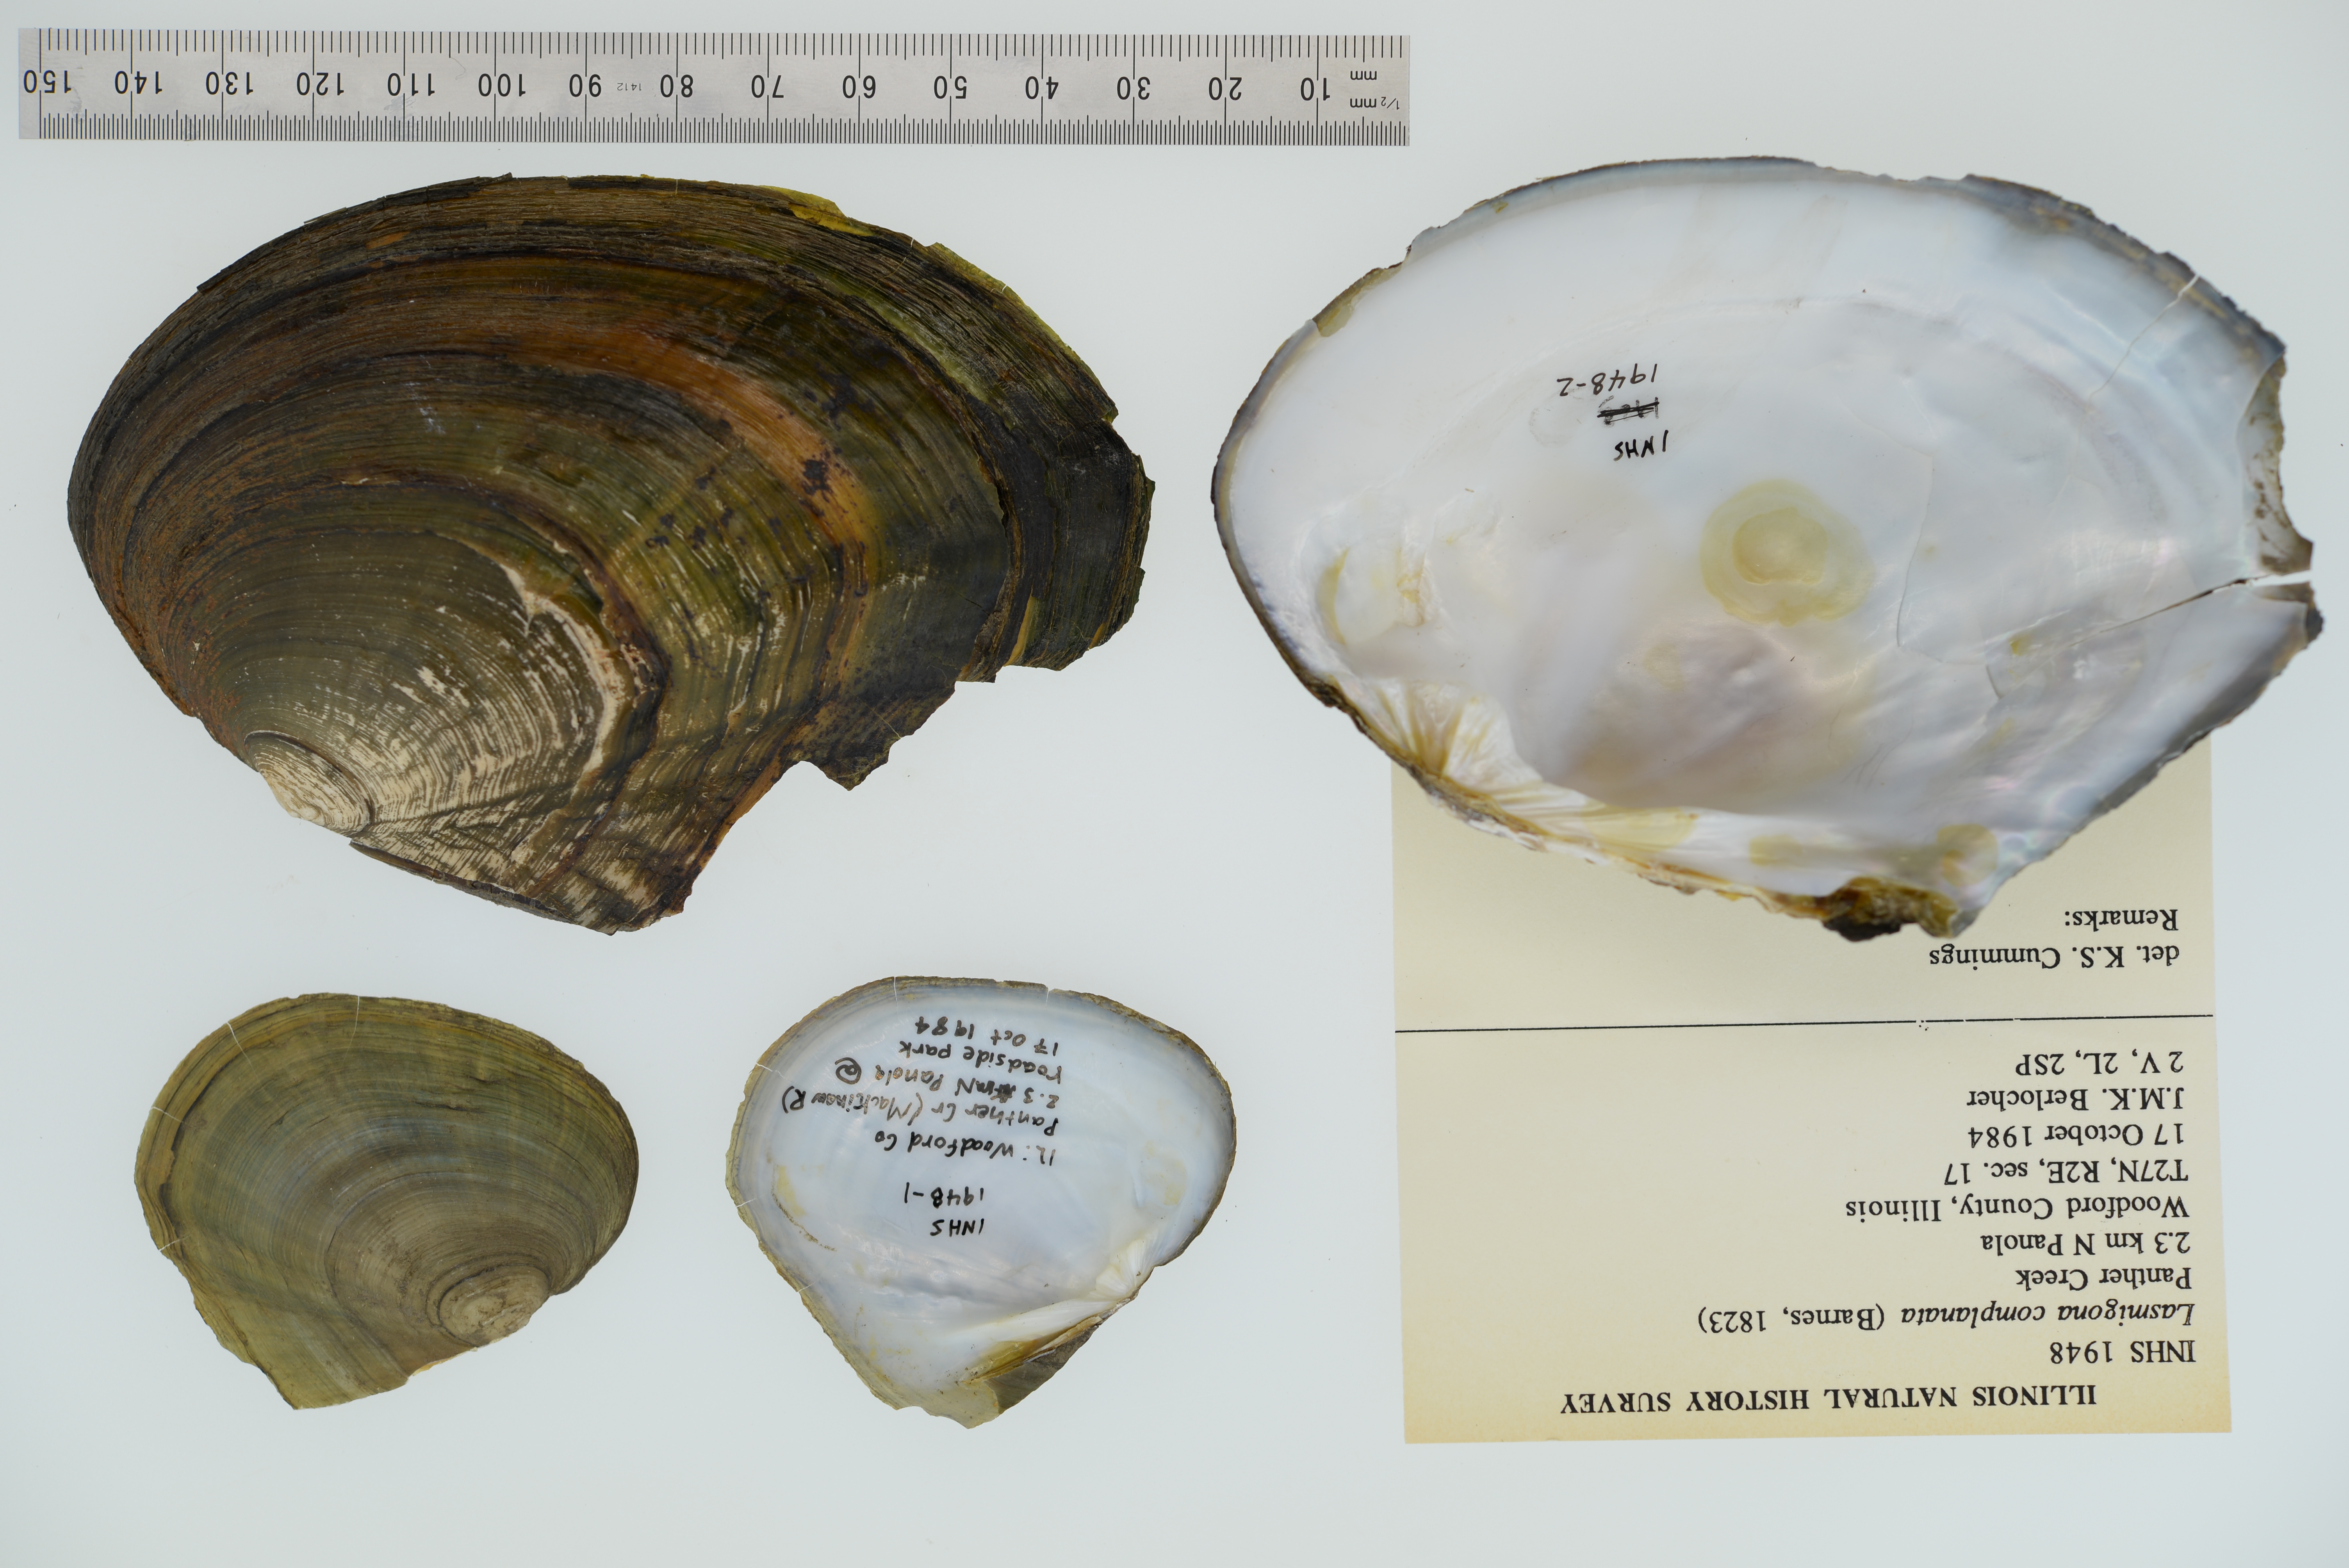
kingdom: Animalia
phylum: Mollusca
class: Bivalvia
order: Unionida
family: Unionidae
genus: Lasmigona
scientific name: Lasmigona complanata
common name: White heelsplitter
